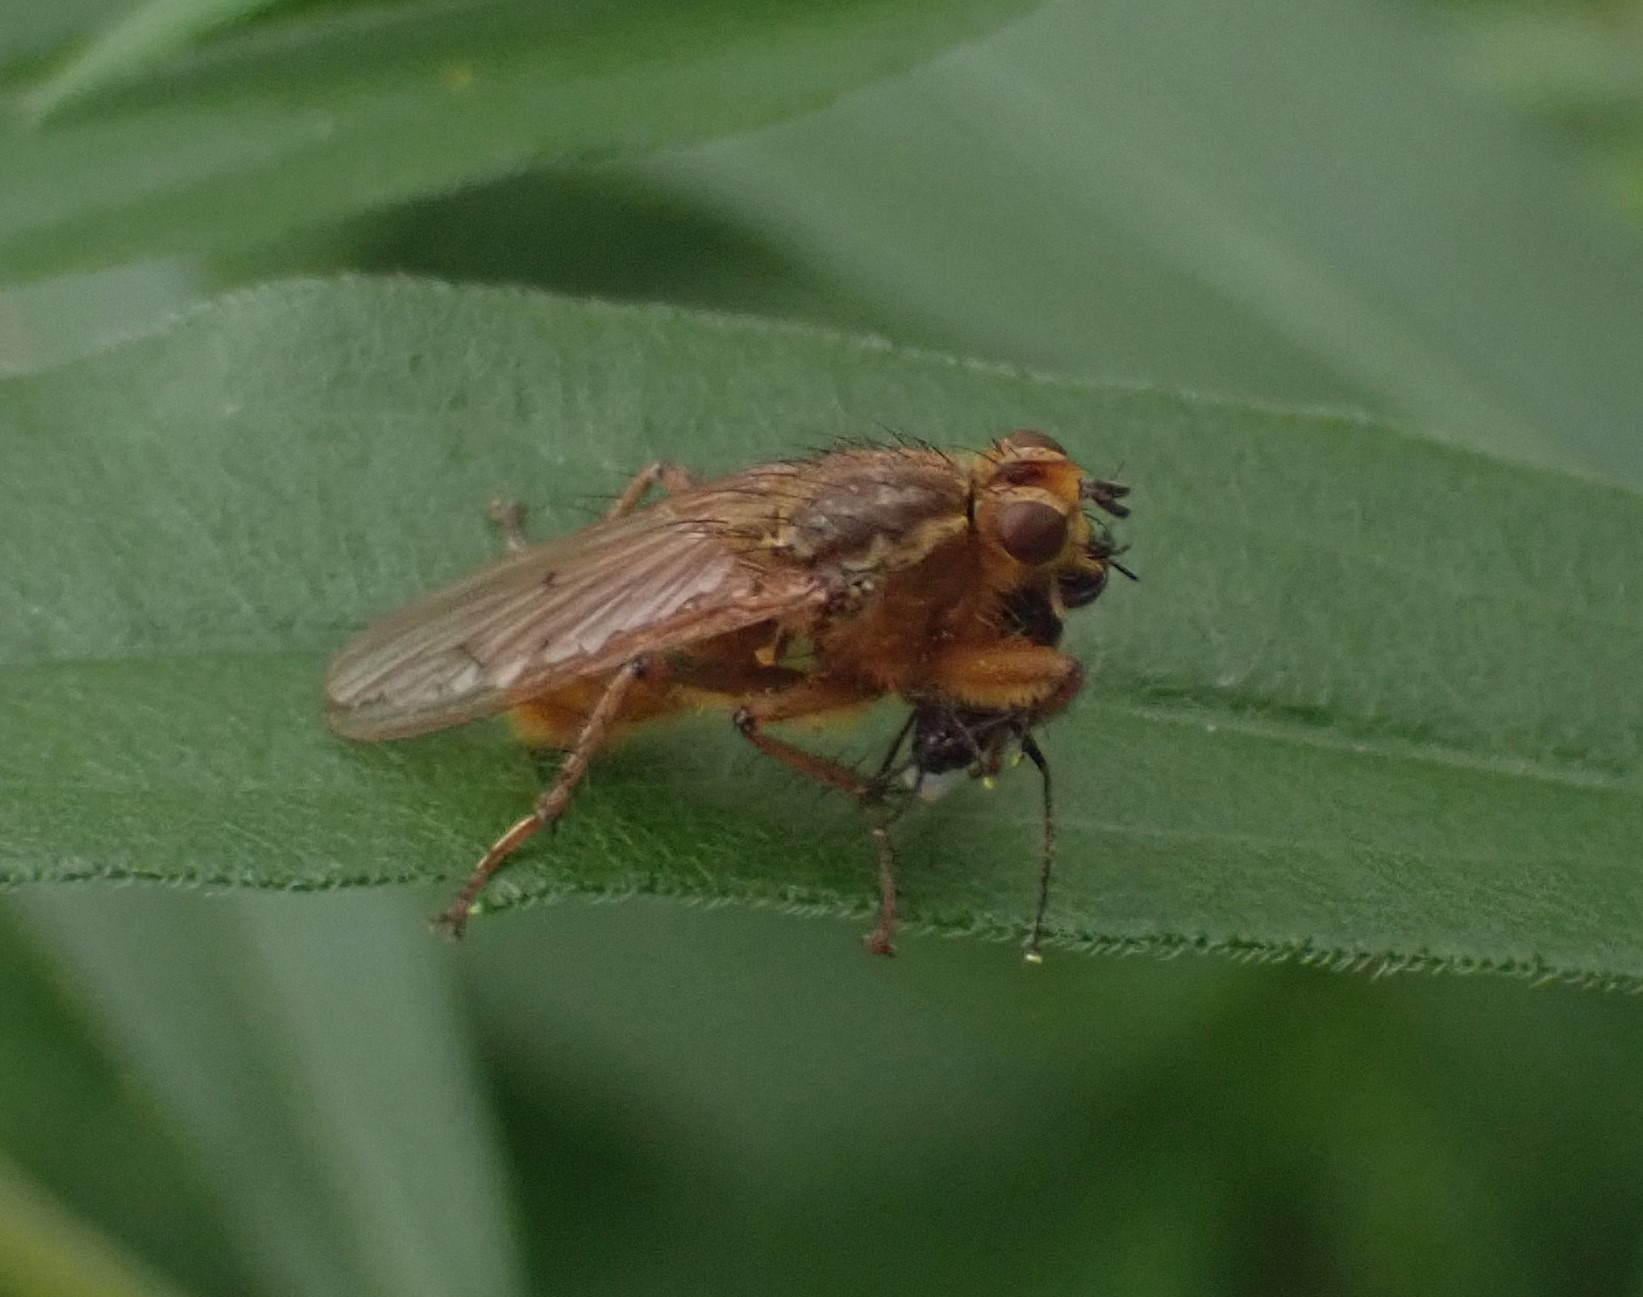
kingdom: Animalia
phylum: Arthropoda
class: Insecta
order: Diptera
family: Scathophagidae
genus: Scathophaga
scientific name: Scathophaga stercoraria
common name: Almindelig gødningsflue
